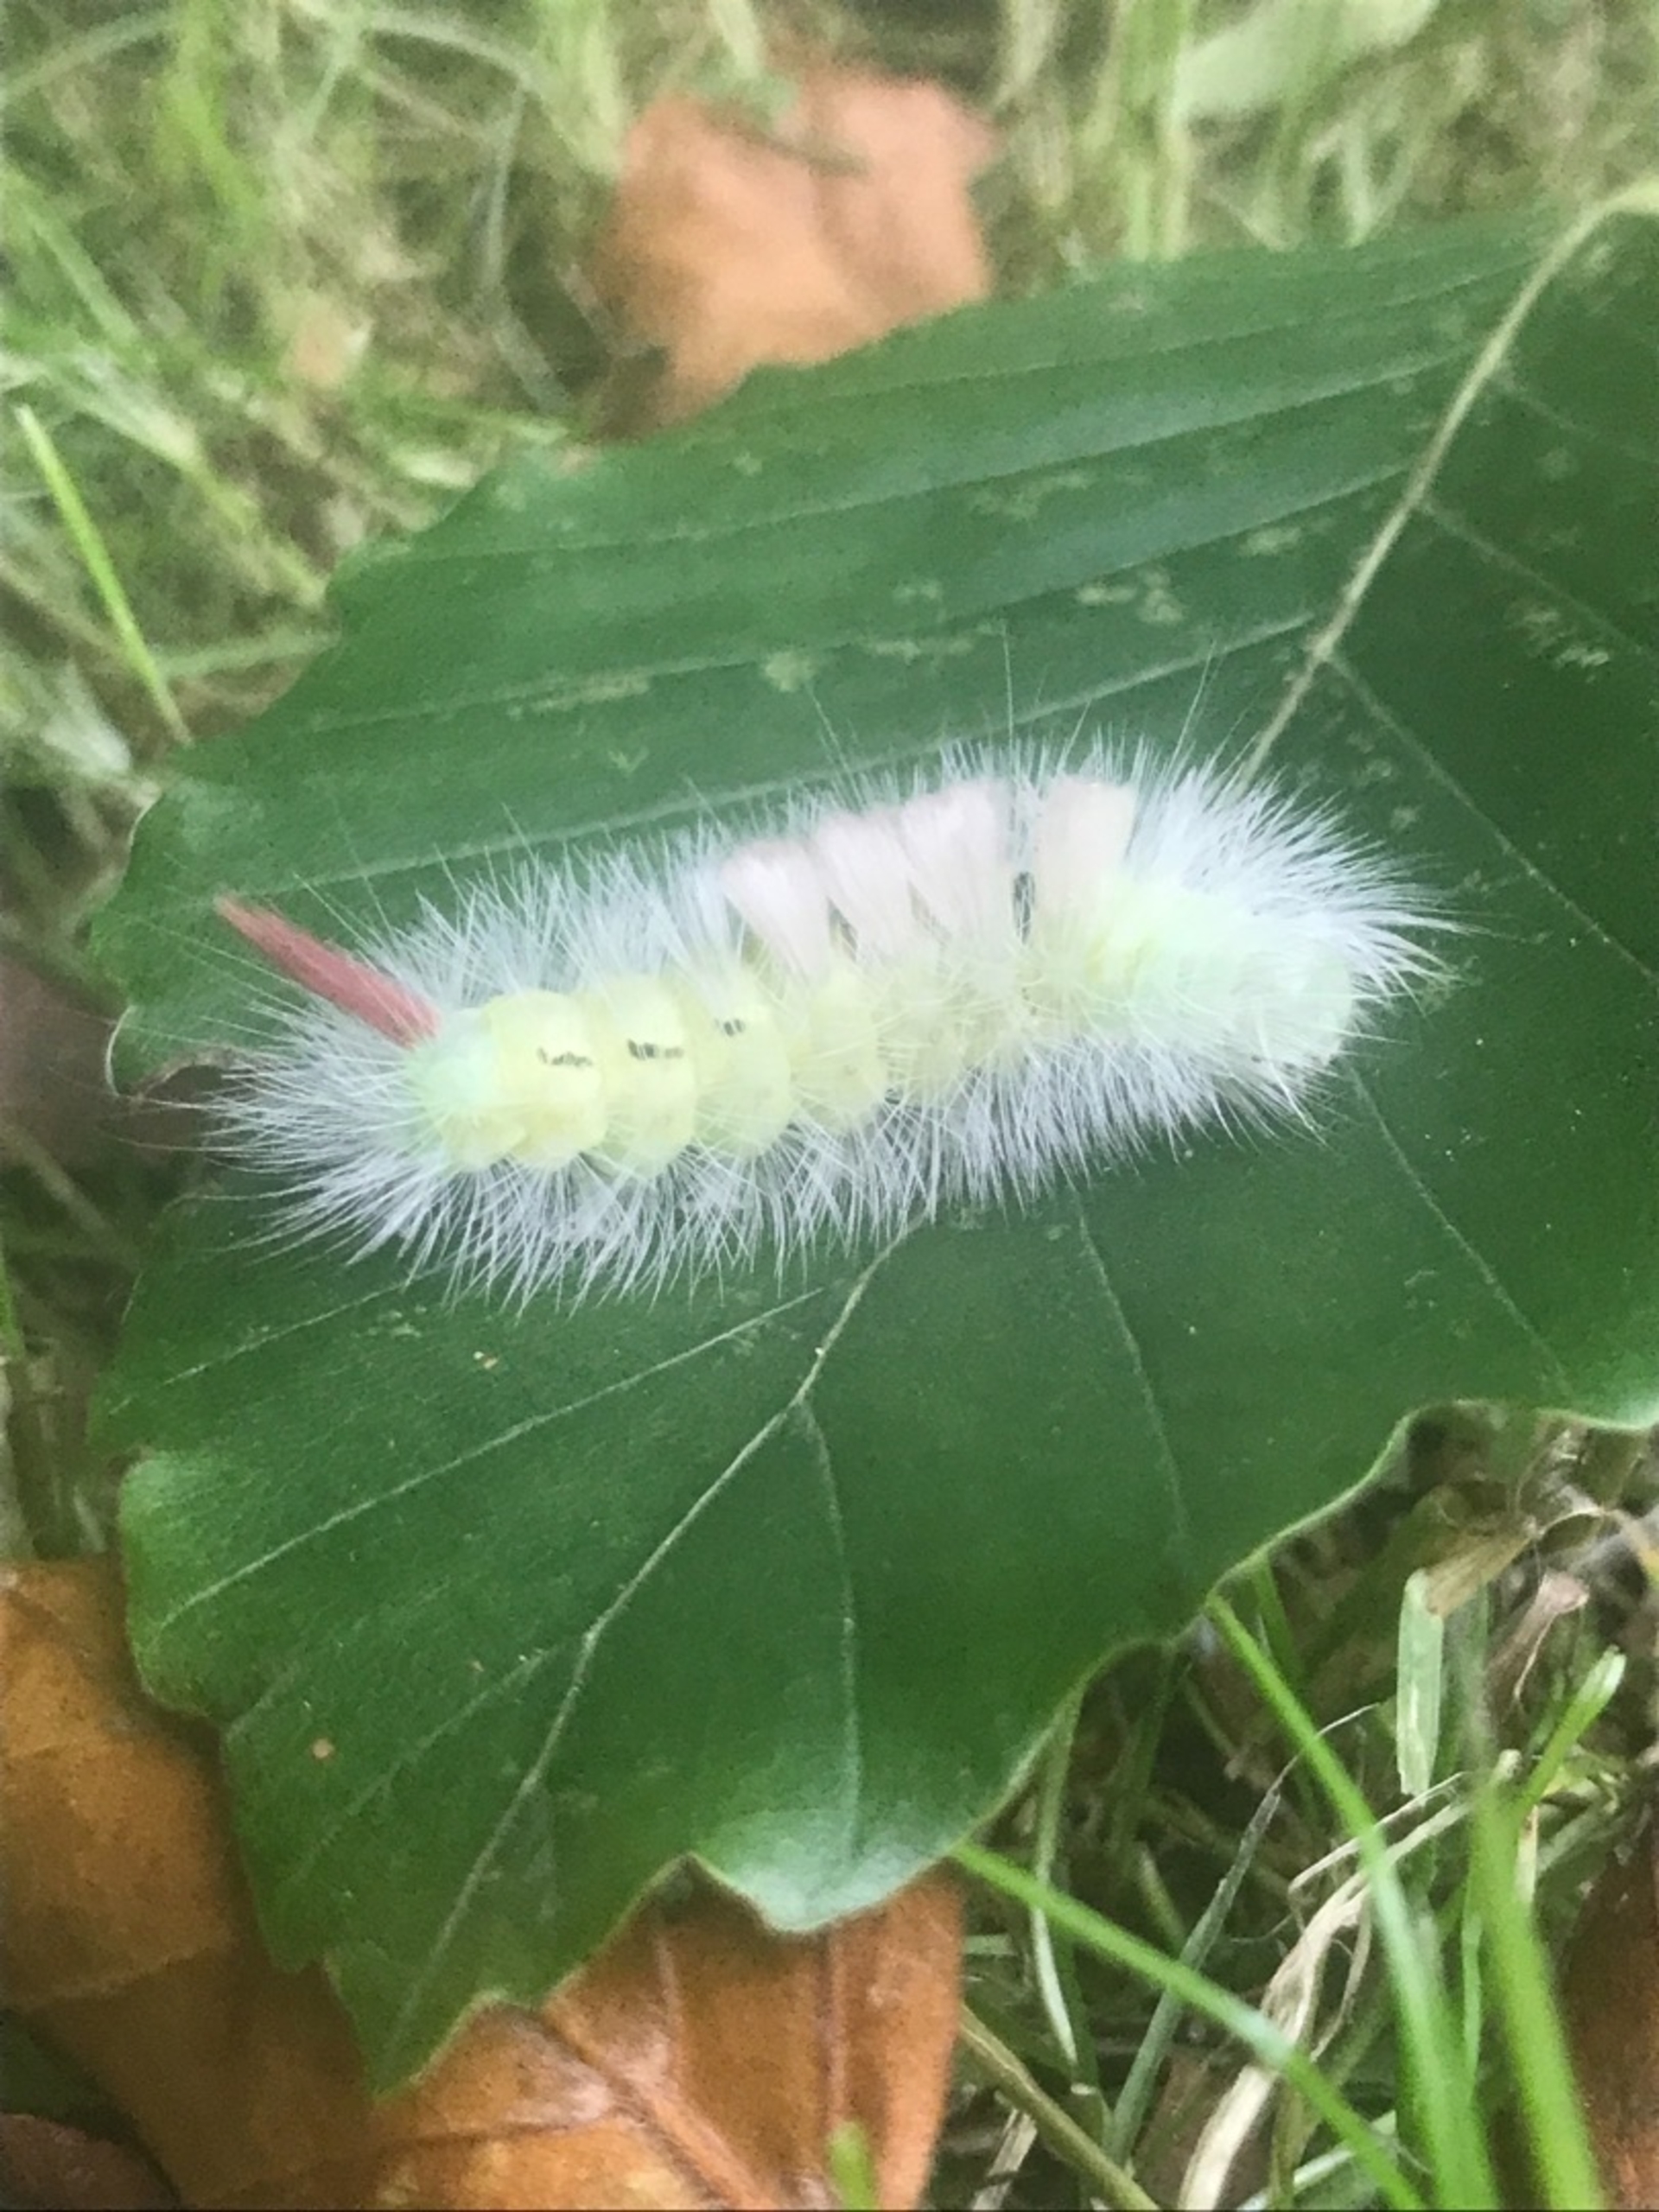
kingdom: Animalia
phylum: Arthropoda
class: Insecta
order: Lepidoptera
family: Erebidae
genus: Calliteara
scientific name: Calliteara pudibunda
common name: Bøgenonne
